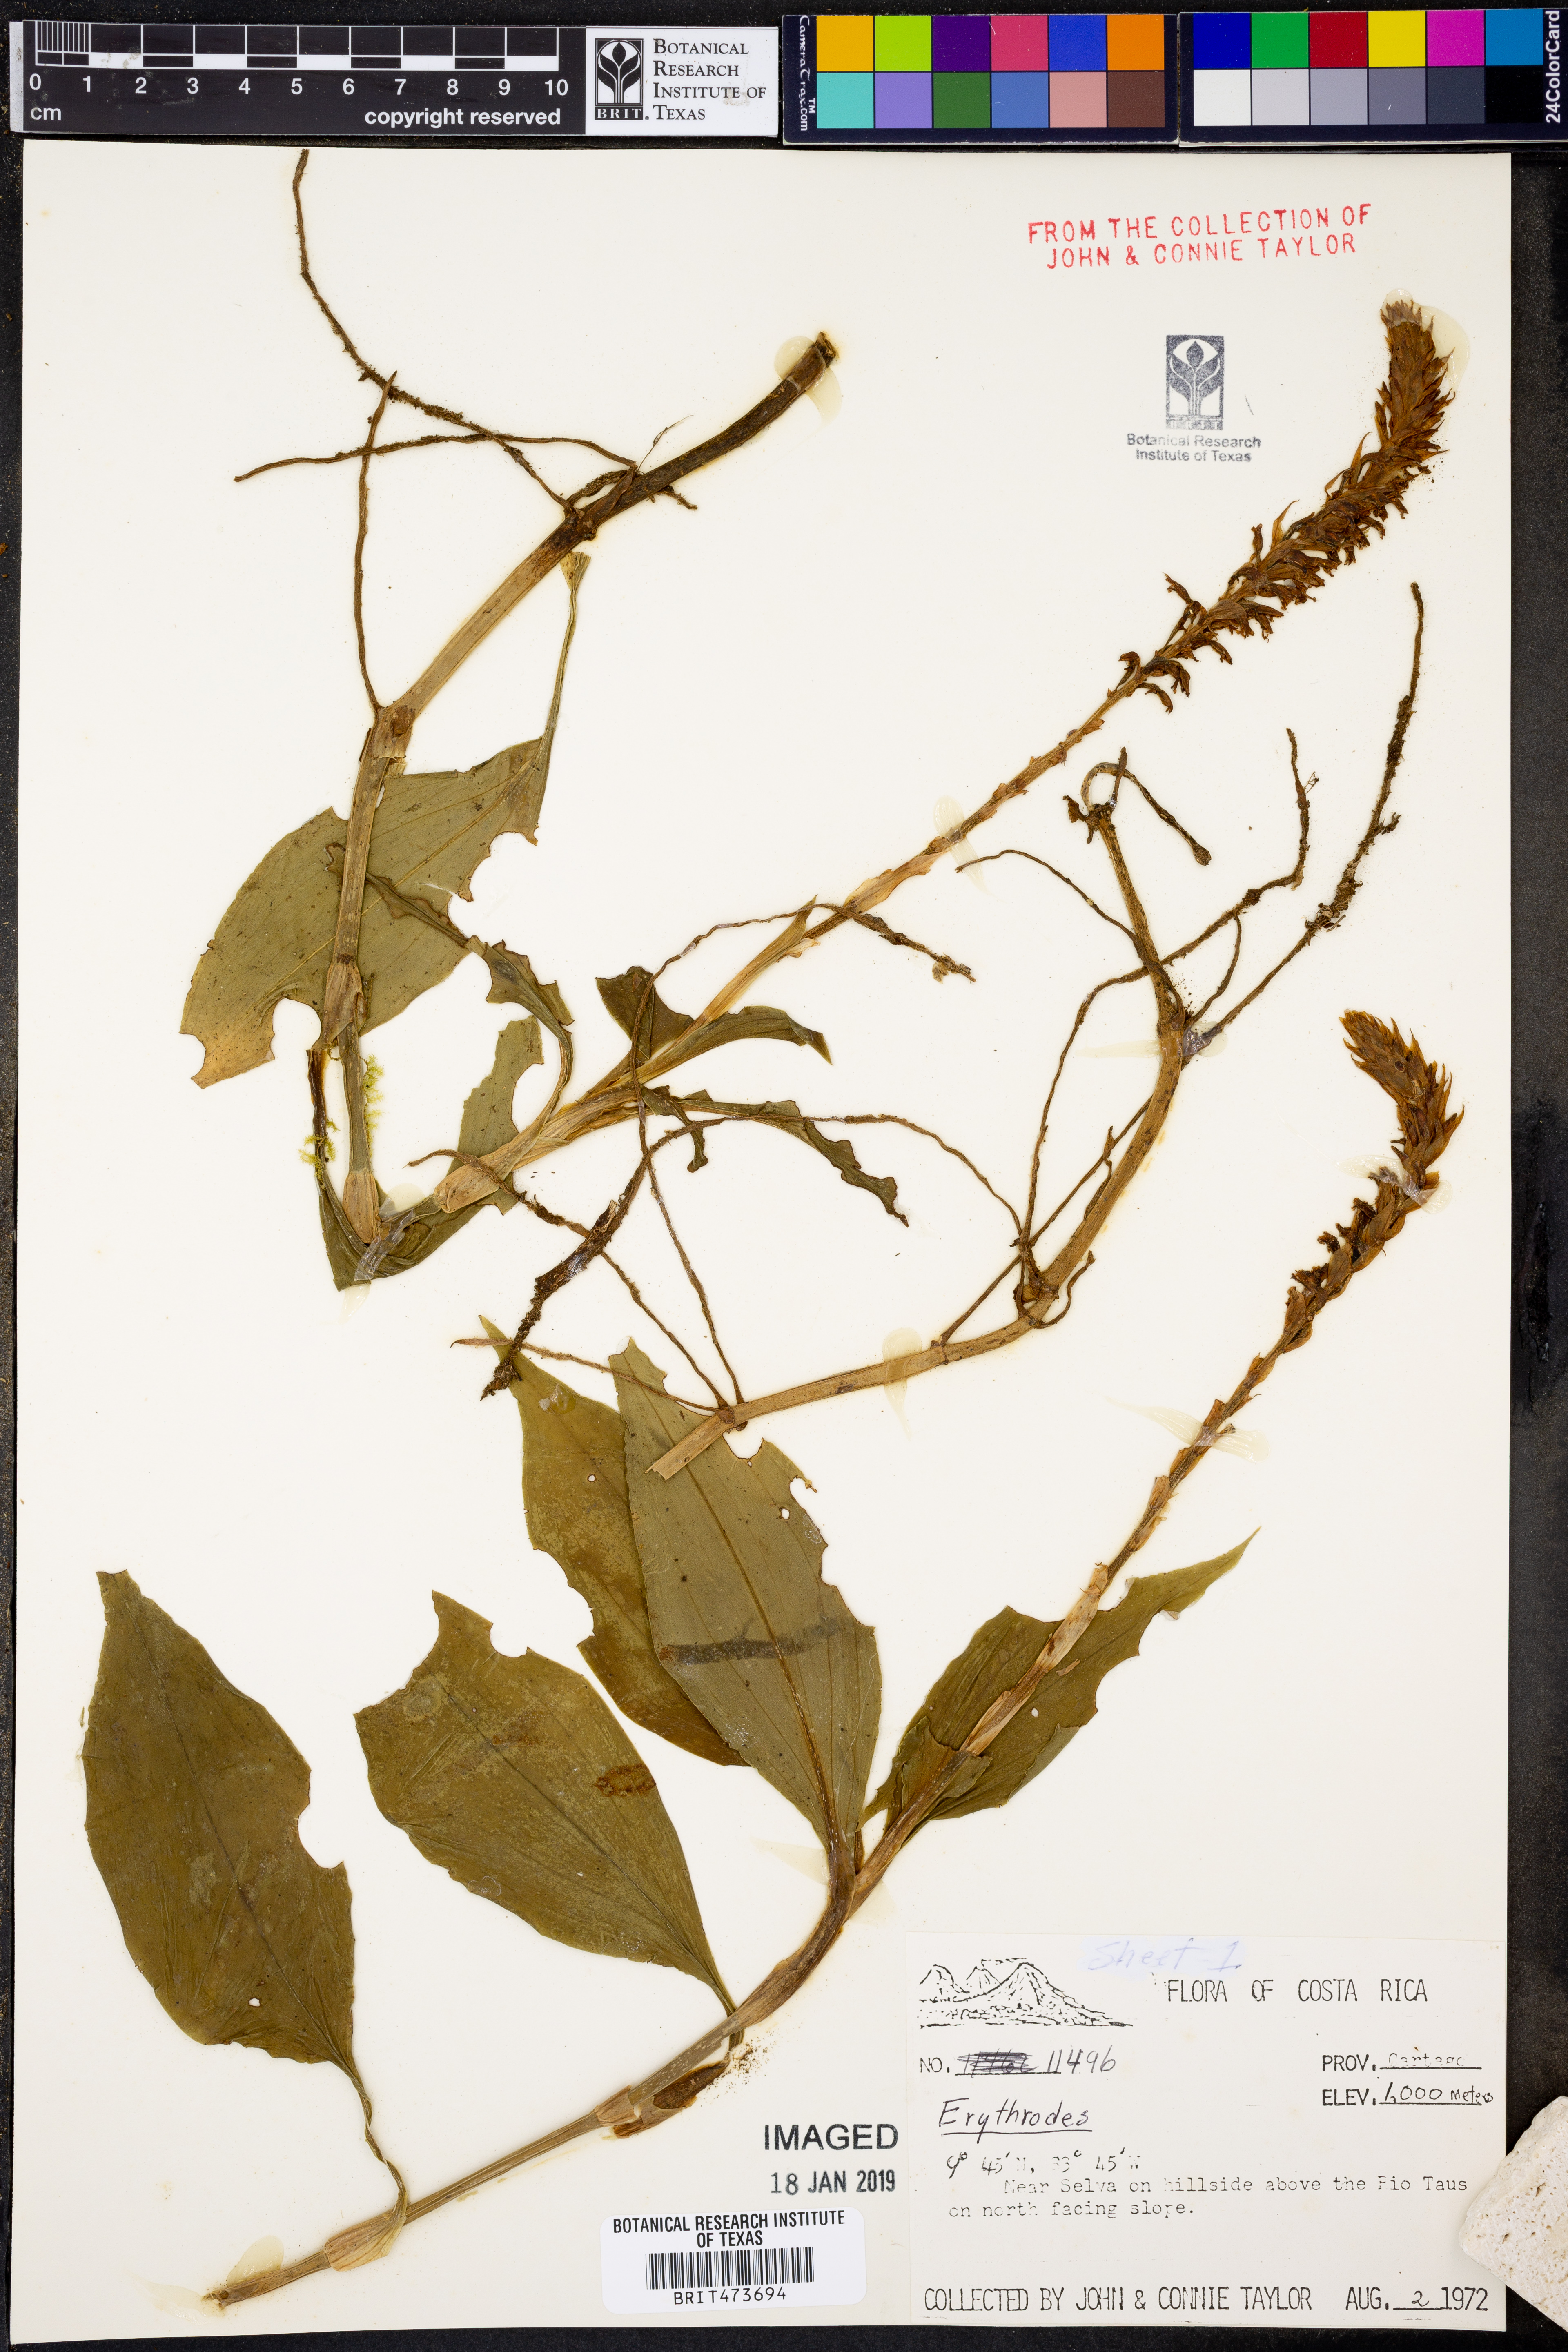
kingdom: Plantae
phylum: Tracheophyta
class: Liliopsida
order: Asparagales
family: Orchidaceae
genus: Erythrodes
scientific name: Erythrodes
